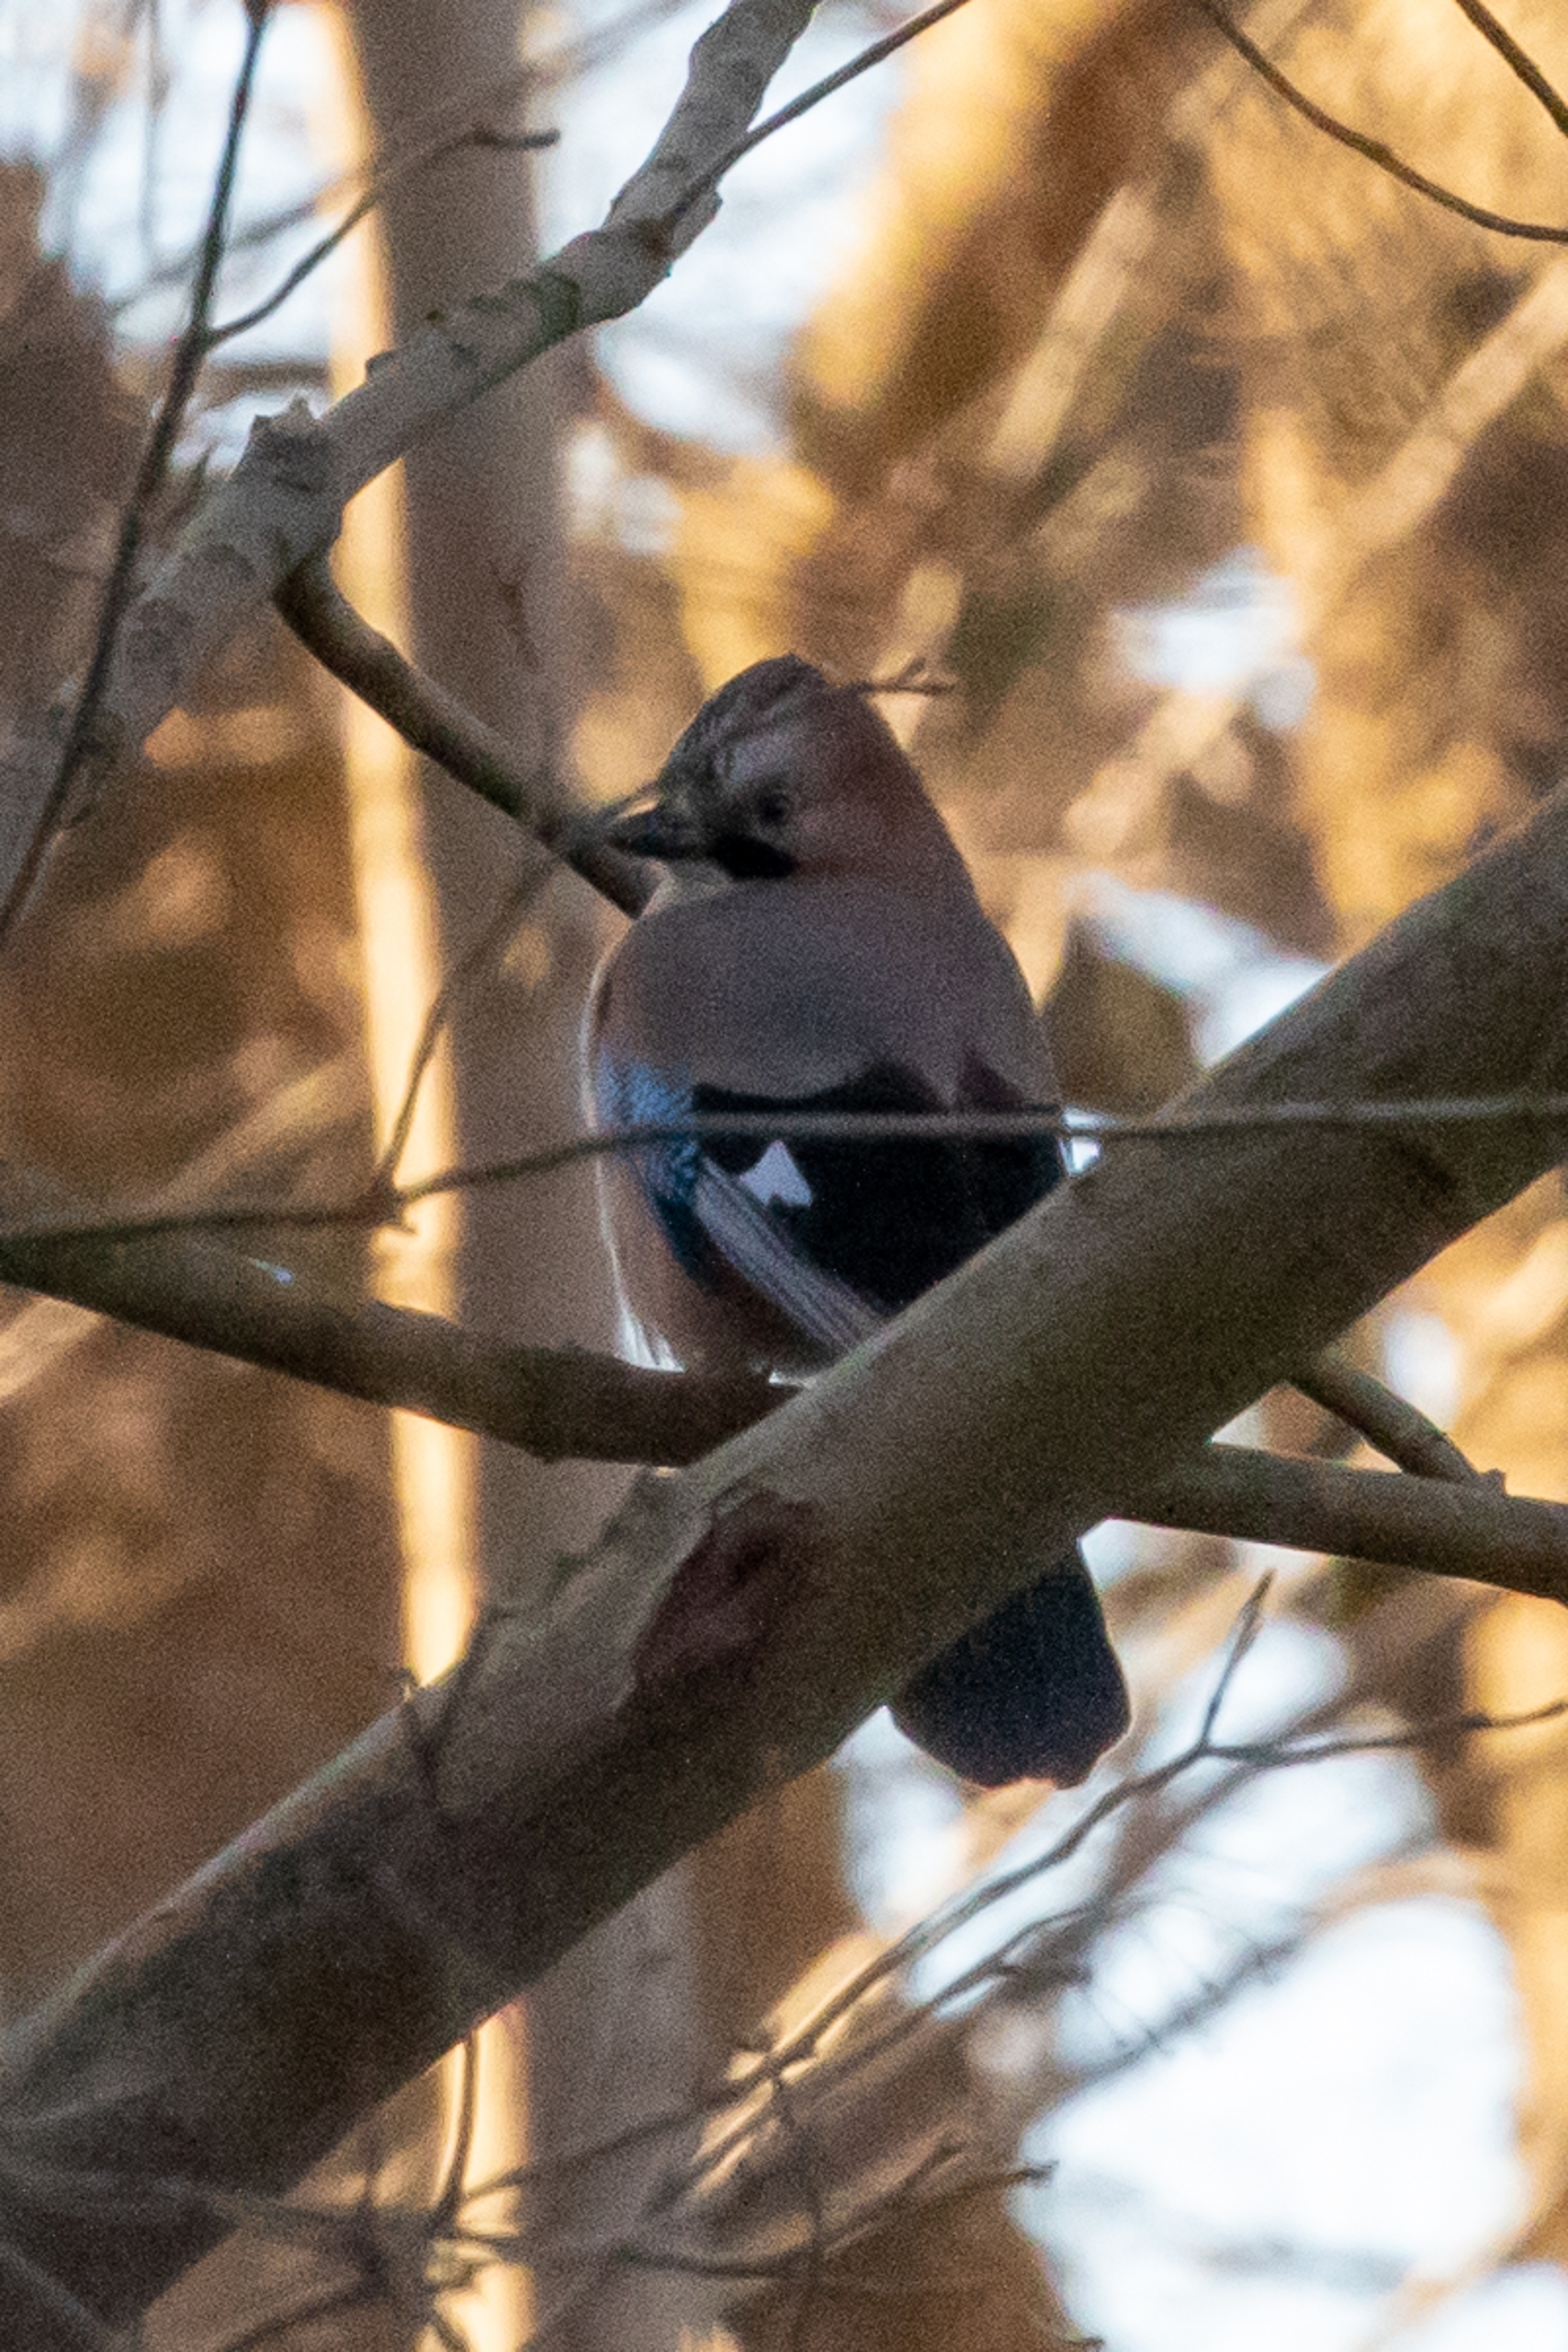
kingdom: Animalia
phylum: Chordata
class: Aves
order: Passeriformes
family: Corvidae
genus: Garrulus
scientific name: Garrulus glandarius
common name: Skovskade
